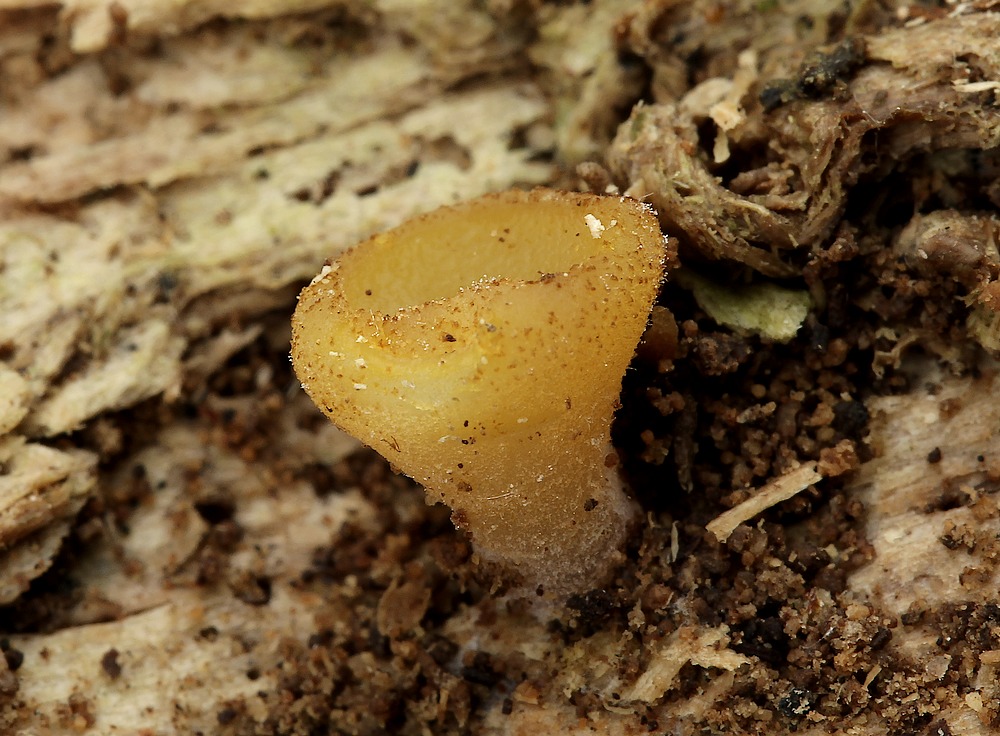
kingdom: Fungi
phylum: Ascomycota
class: Pezizomycetes
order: Pezizales
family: Pezizaceae
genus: Peziza
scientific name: Peziza
